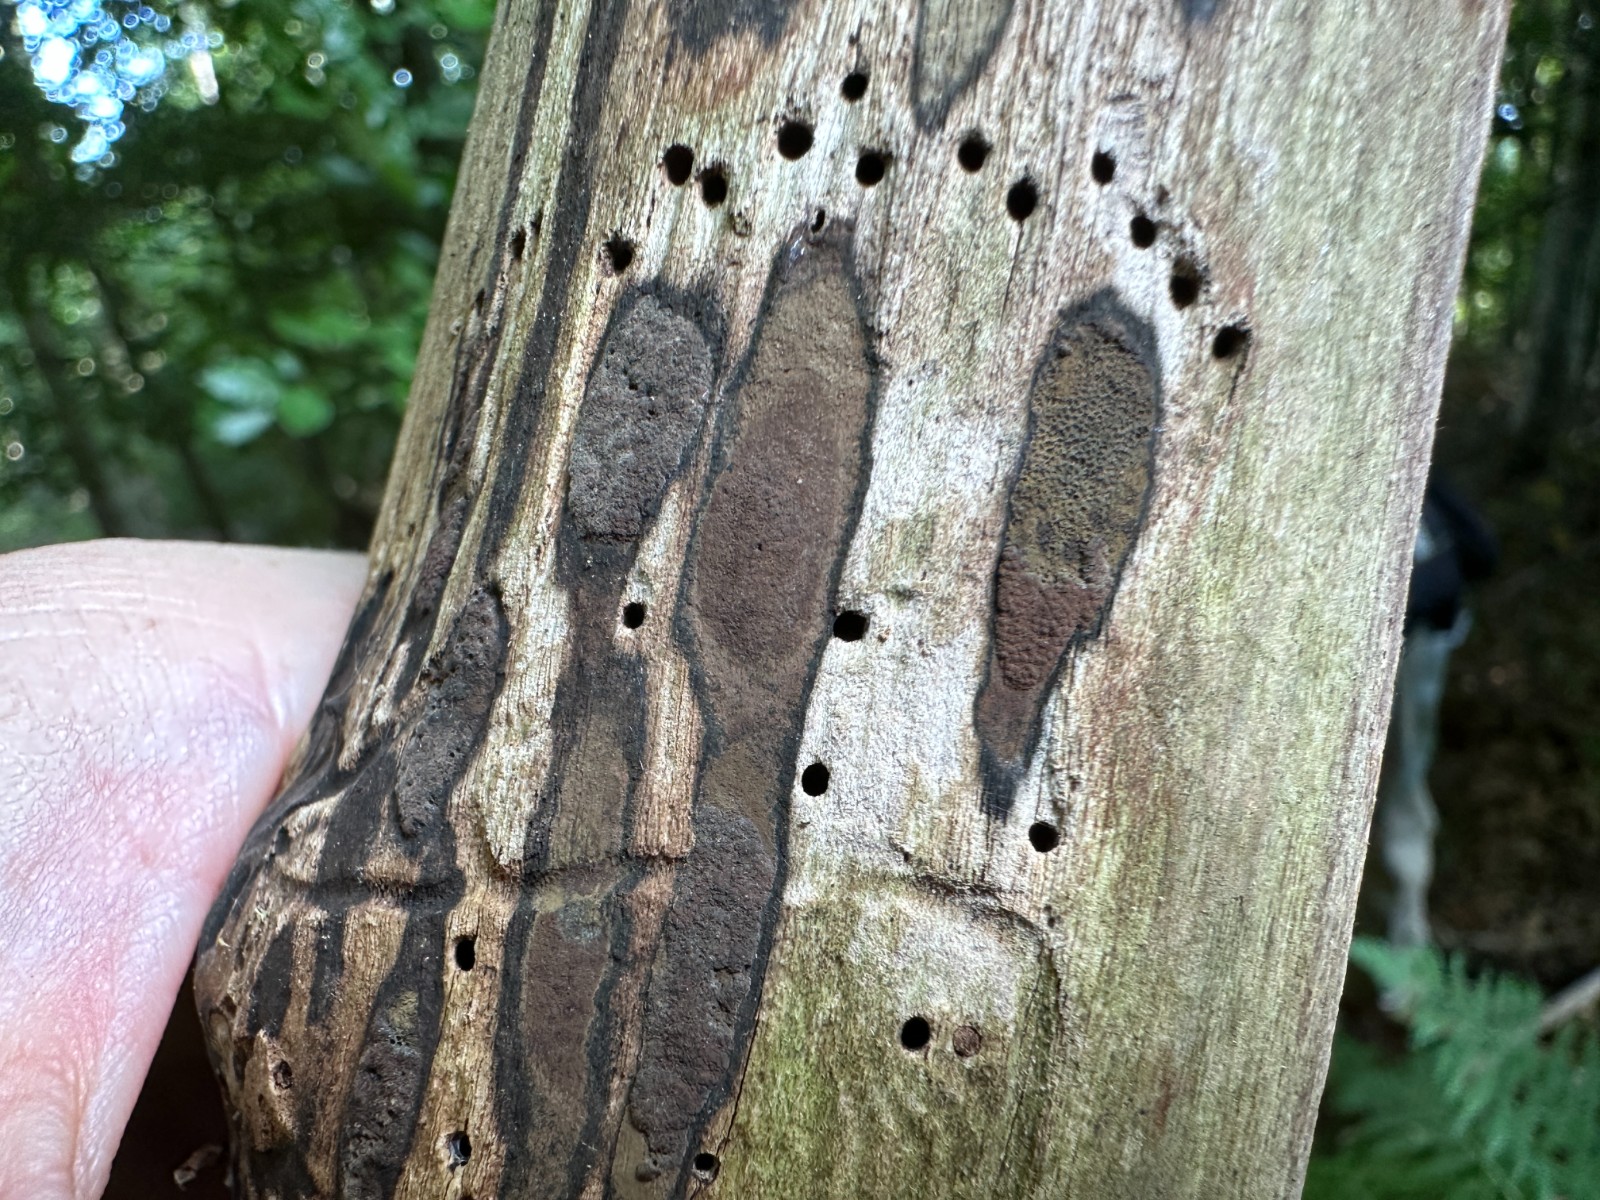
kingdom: Fungi
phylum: Ascomycota
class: Sordariomycetes
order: Xylariales
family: Hypoxylaceae
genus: Hypoxylon
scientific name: Hypoxylon petriniae
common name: nedsænket kulbær
